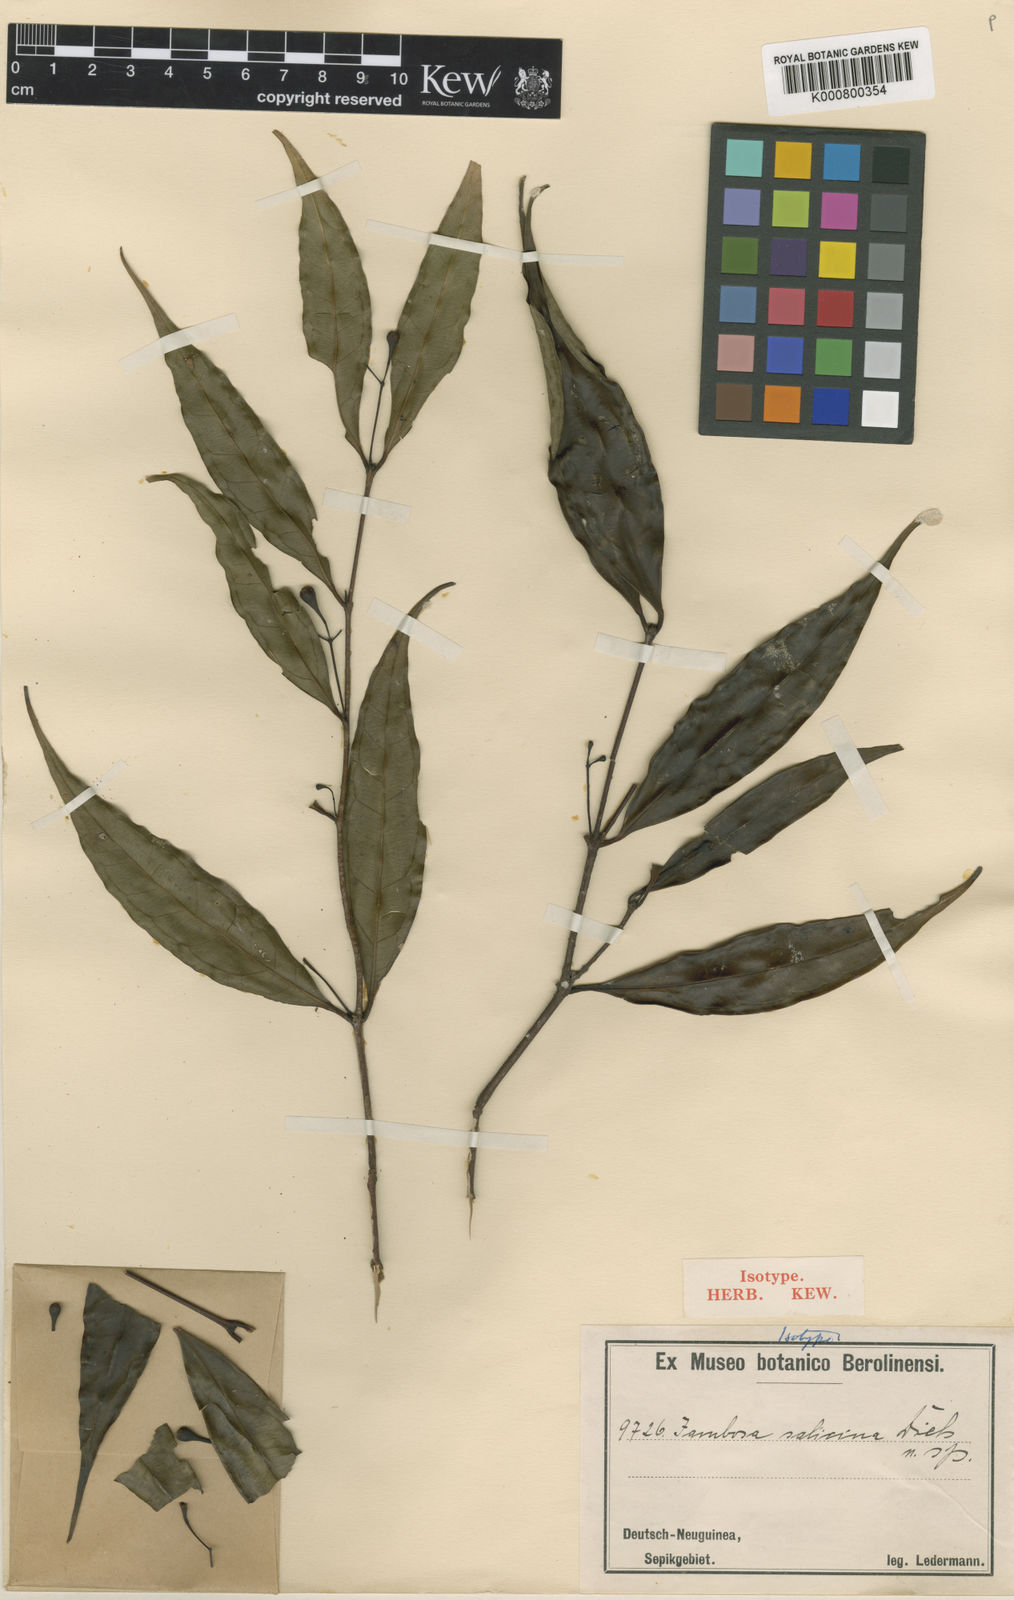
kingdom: Plantae
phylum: Tracheophyta
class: Magnoliopsida
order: Myrtales
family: Myrtaceae
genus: Syzygium
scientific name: Syzygium salicinum
